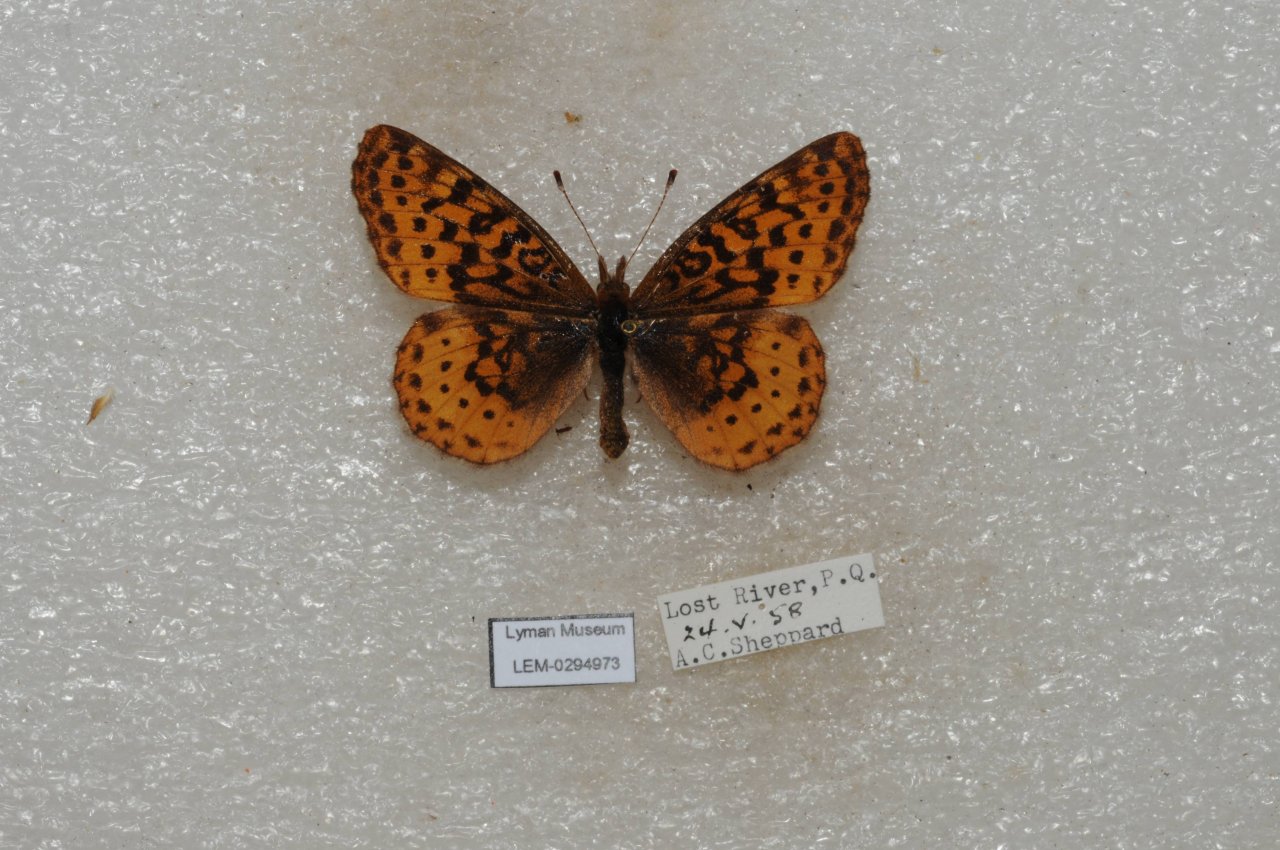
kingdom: Animalia
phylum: Arthropoda
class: Insecta
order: Lepidoptera
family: Nymphalidae
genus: Clossiana
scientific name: Clossiana toddi
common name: Meadow Fritillary
